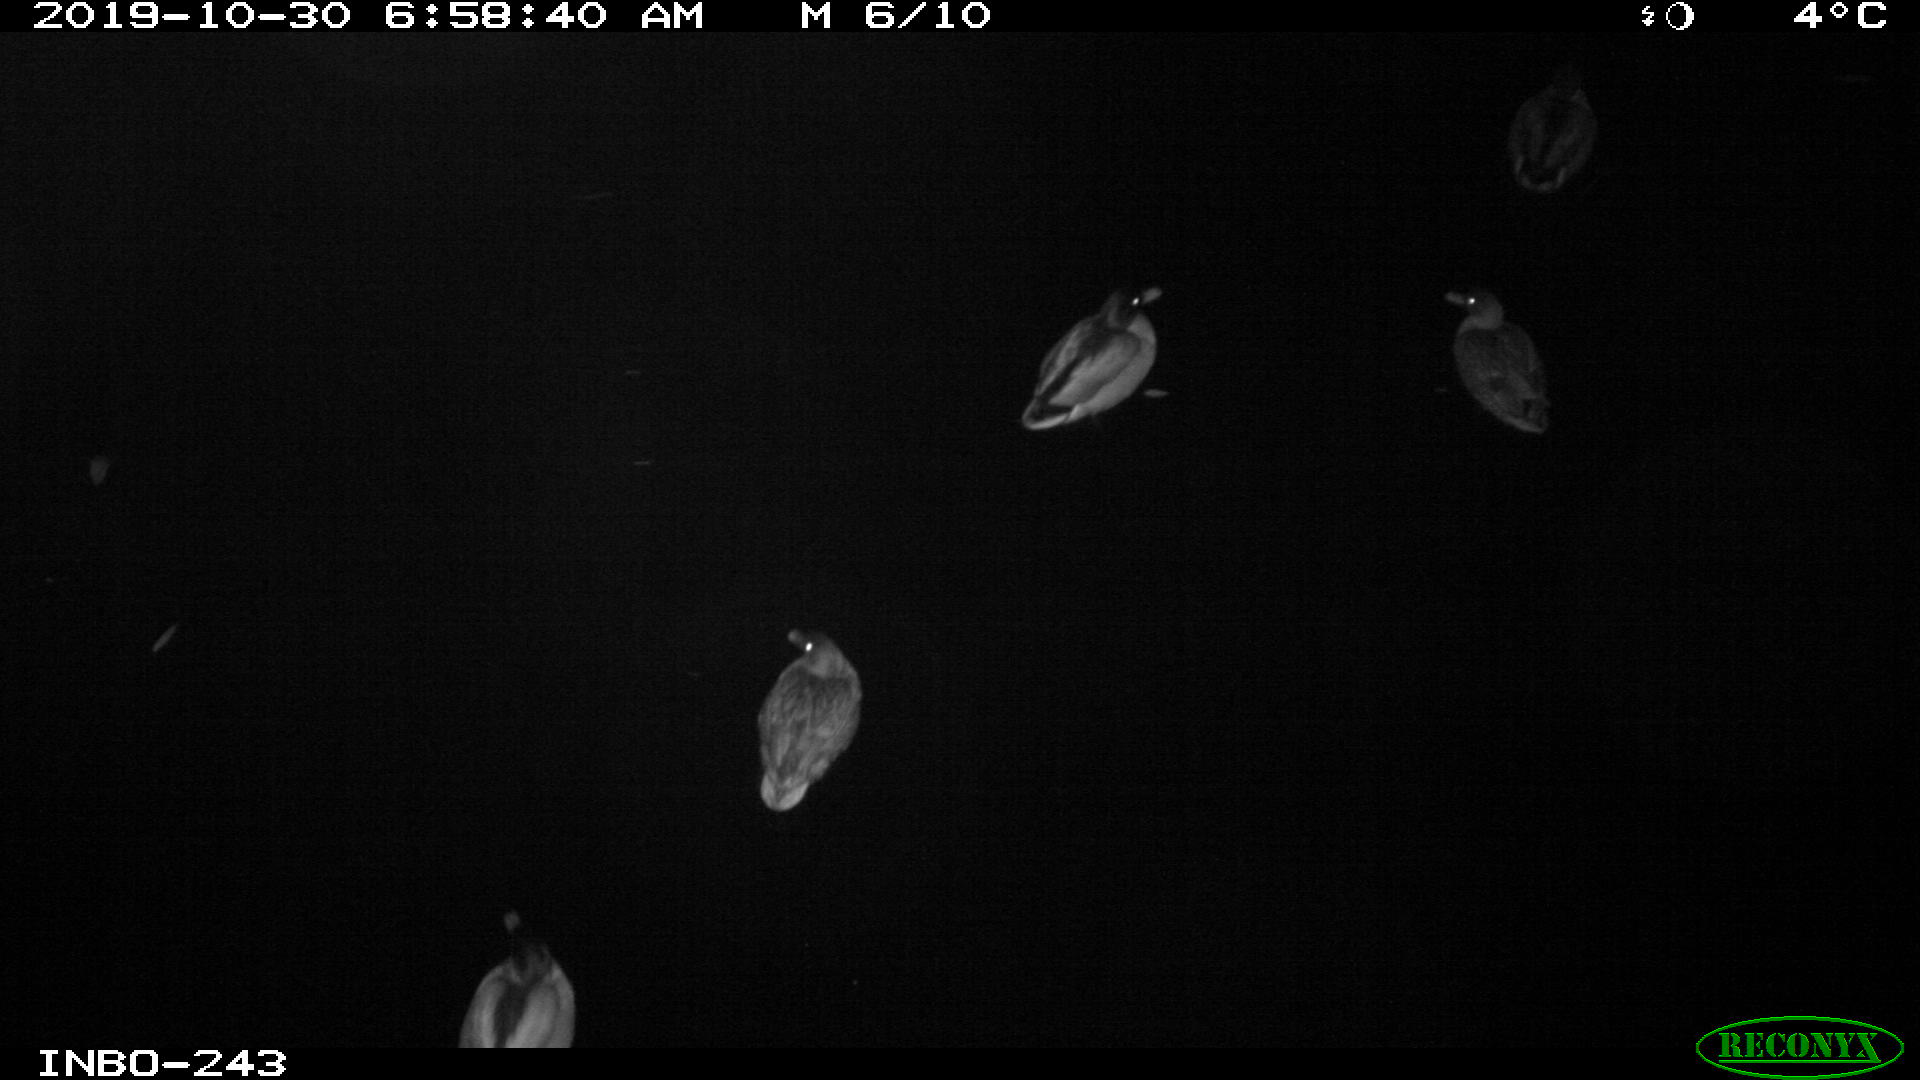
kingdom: Animalia
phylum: Chordata
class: Aves
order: Anseriformes
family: Anatidae
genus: Anas
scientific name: Anas platyrhynchos
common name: Mallard
